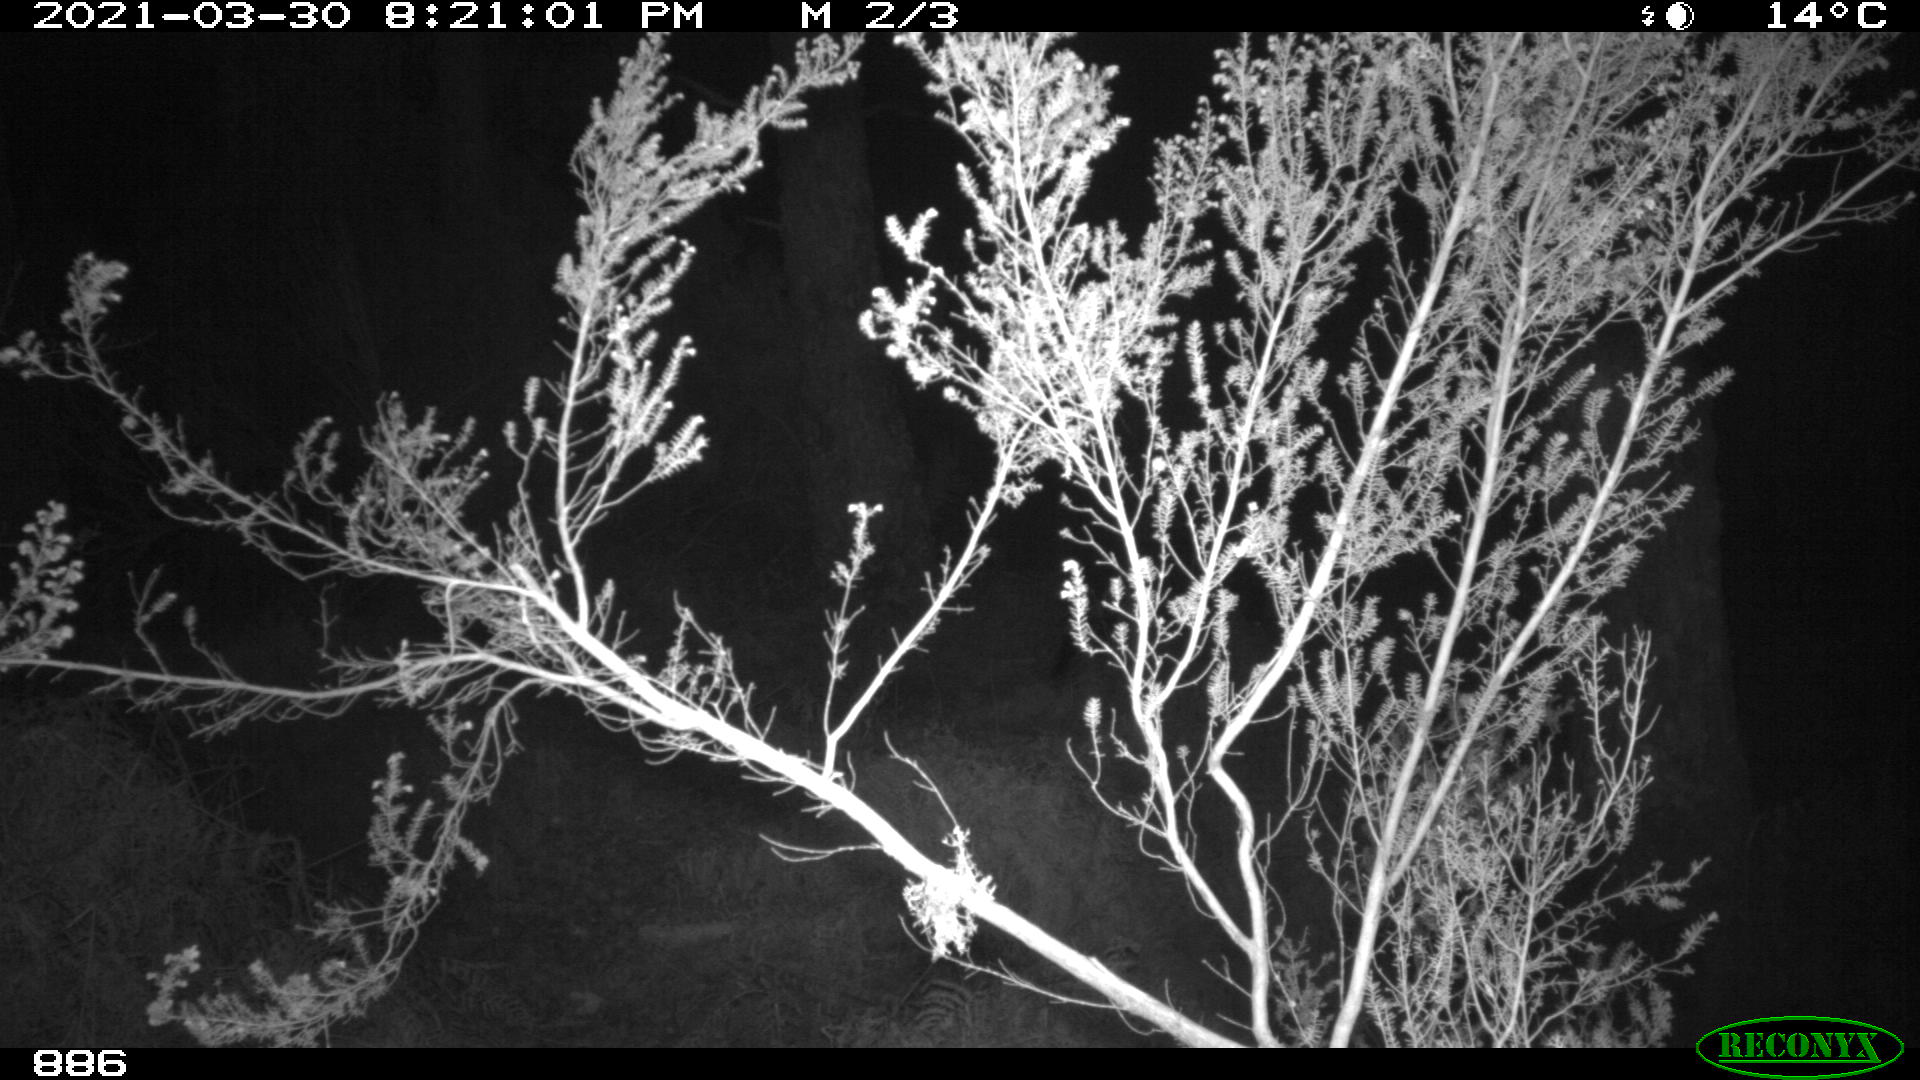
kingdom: Animalia
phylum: Chordata
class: Mammalia
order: Artiodactyla
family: Suidae
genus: Sus
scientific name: Sus scrofa
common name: Wild boar
